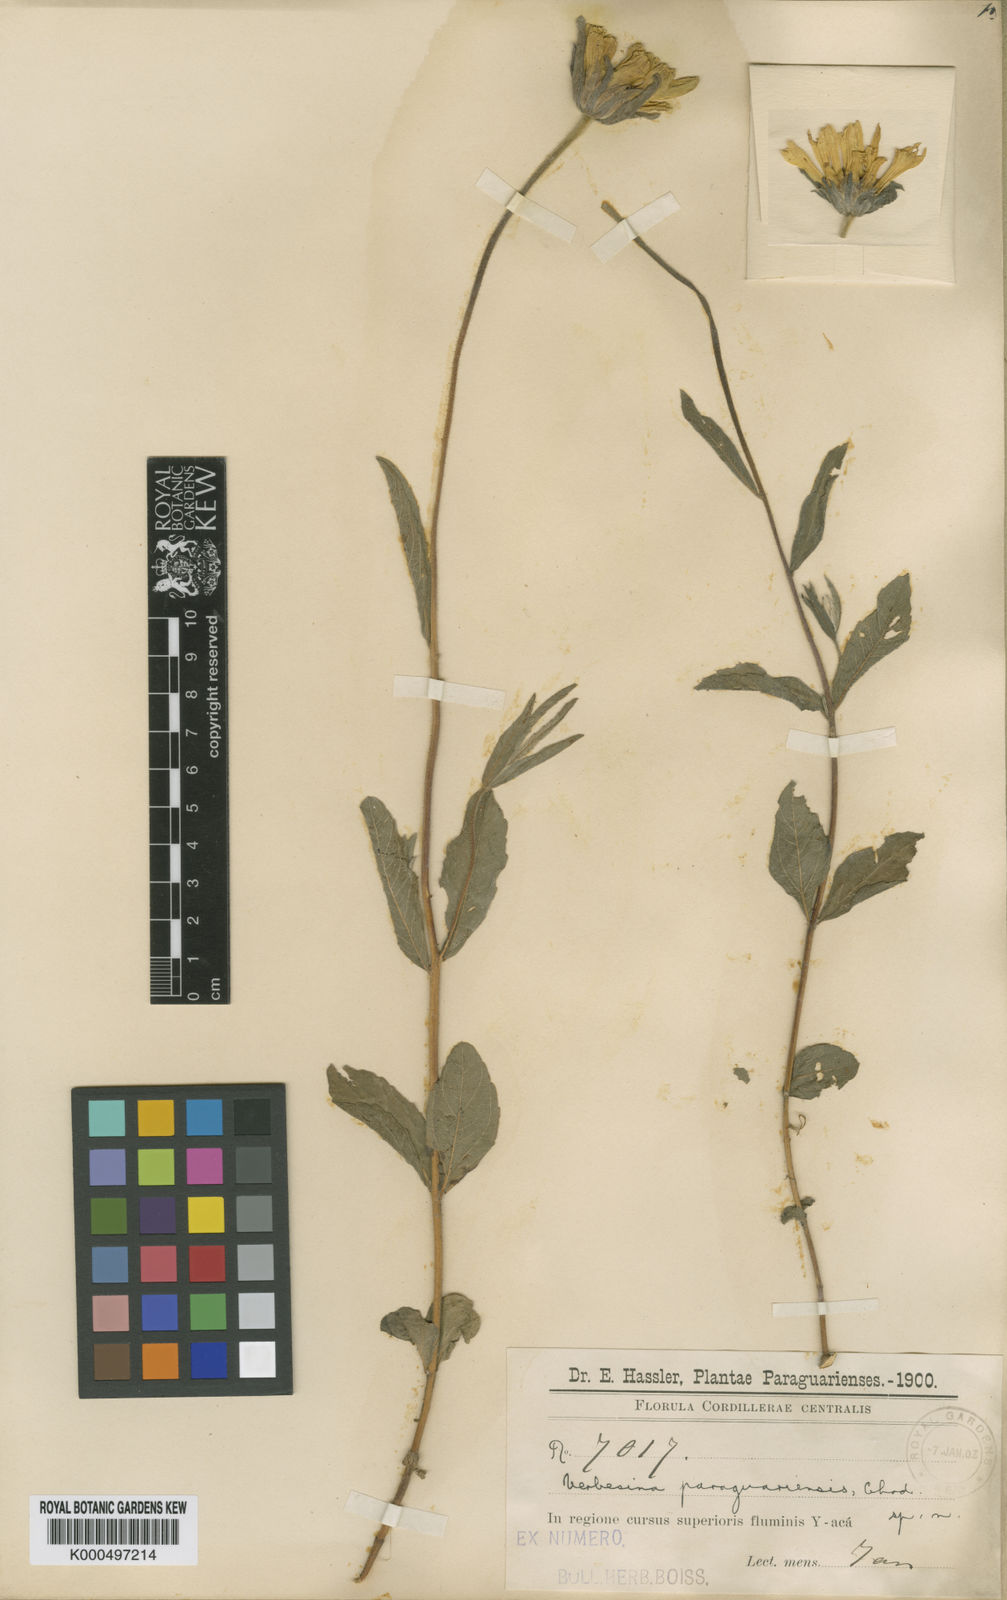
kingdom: Plantae
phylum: Tracheophyta
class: Magnoliopsida
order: Asterales
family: Asteraceae
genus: Dimerostemma
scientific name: Dimerostemma paraguariense
